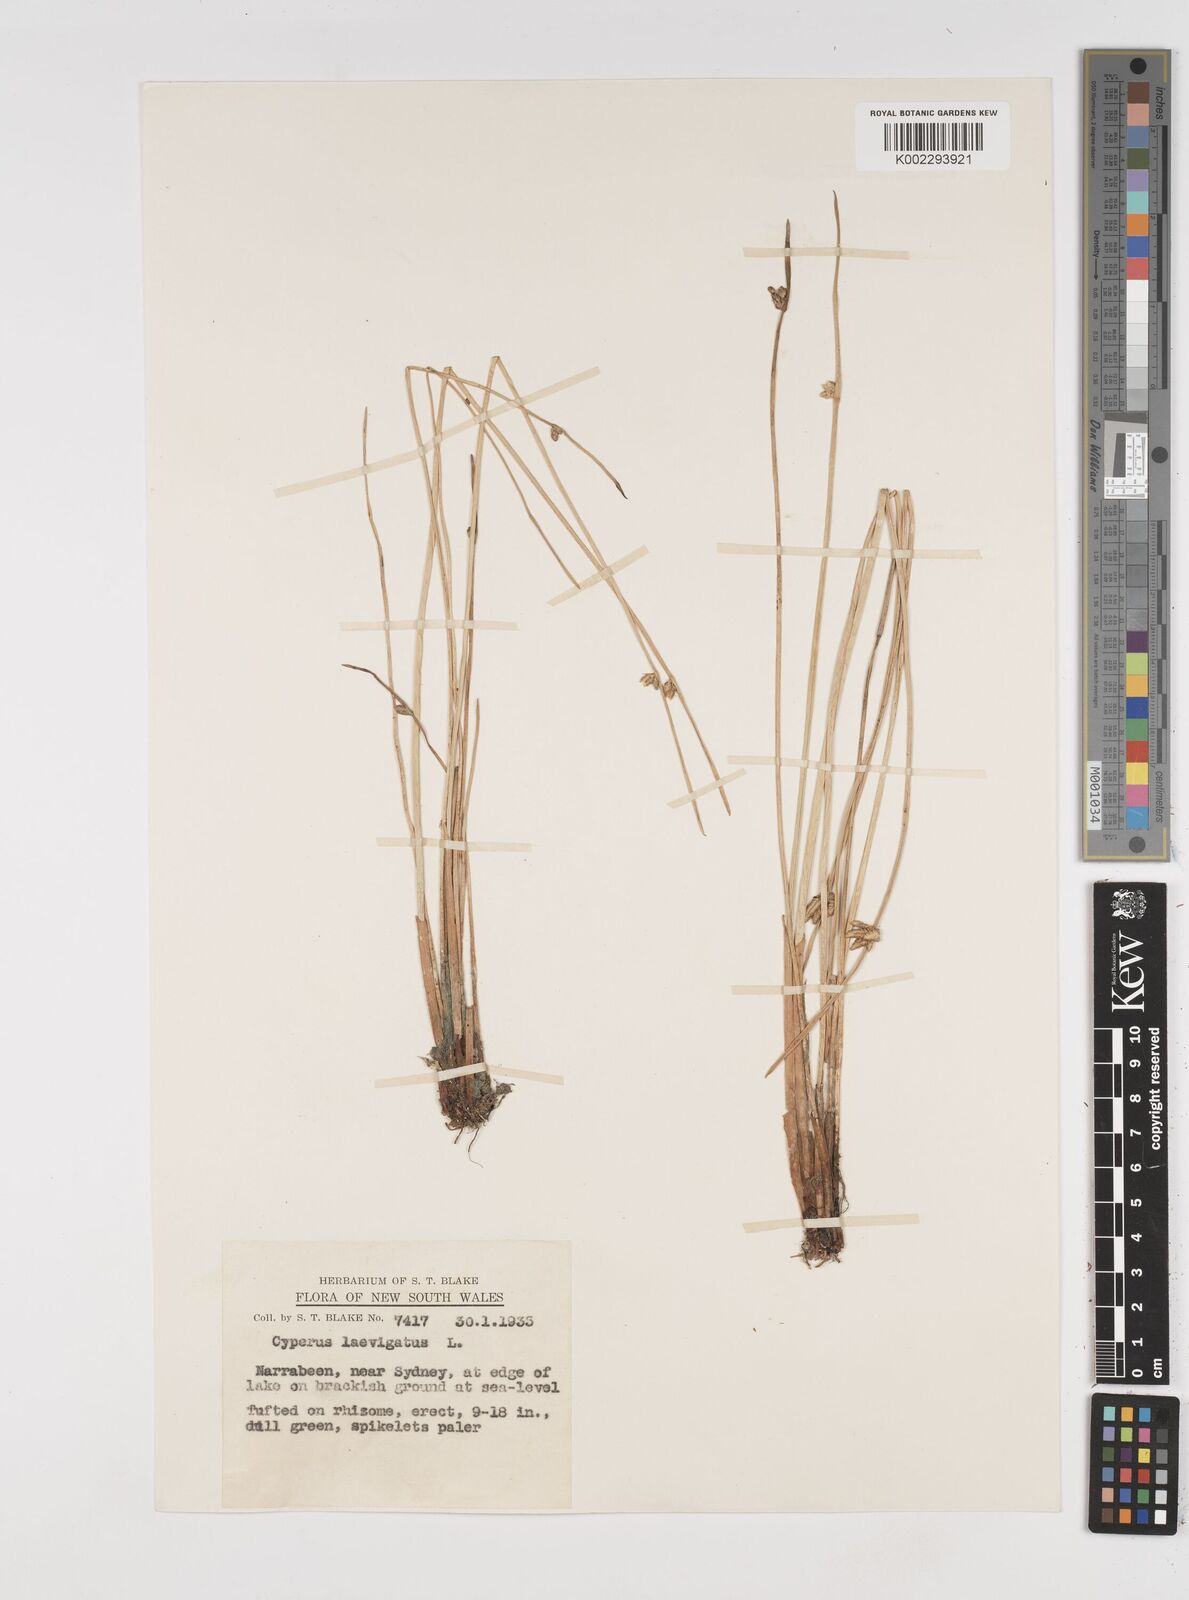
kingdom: Plantae
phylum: Tracheophyta
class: Liliopsida
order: Poales
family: Cyperaceae
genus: Cyperus
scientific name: Cyperus laevigatus
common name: Smooth flat sedge
